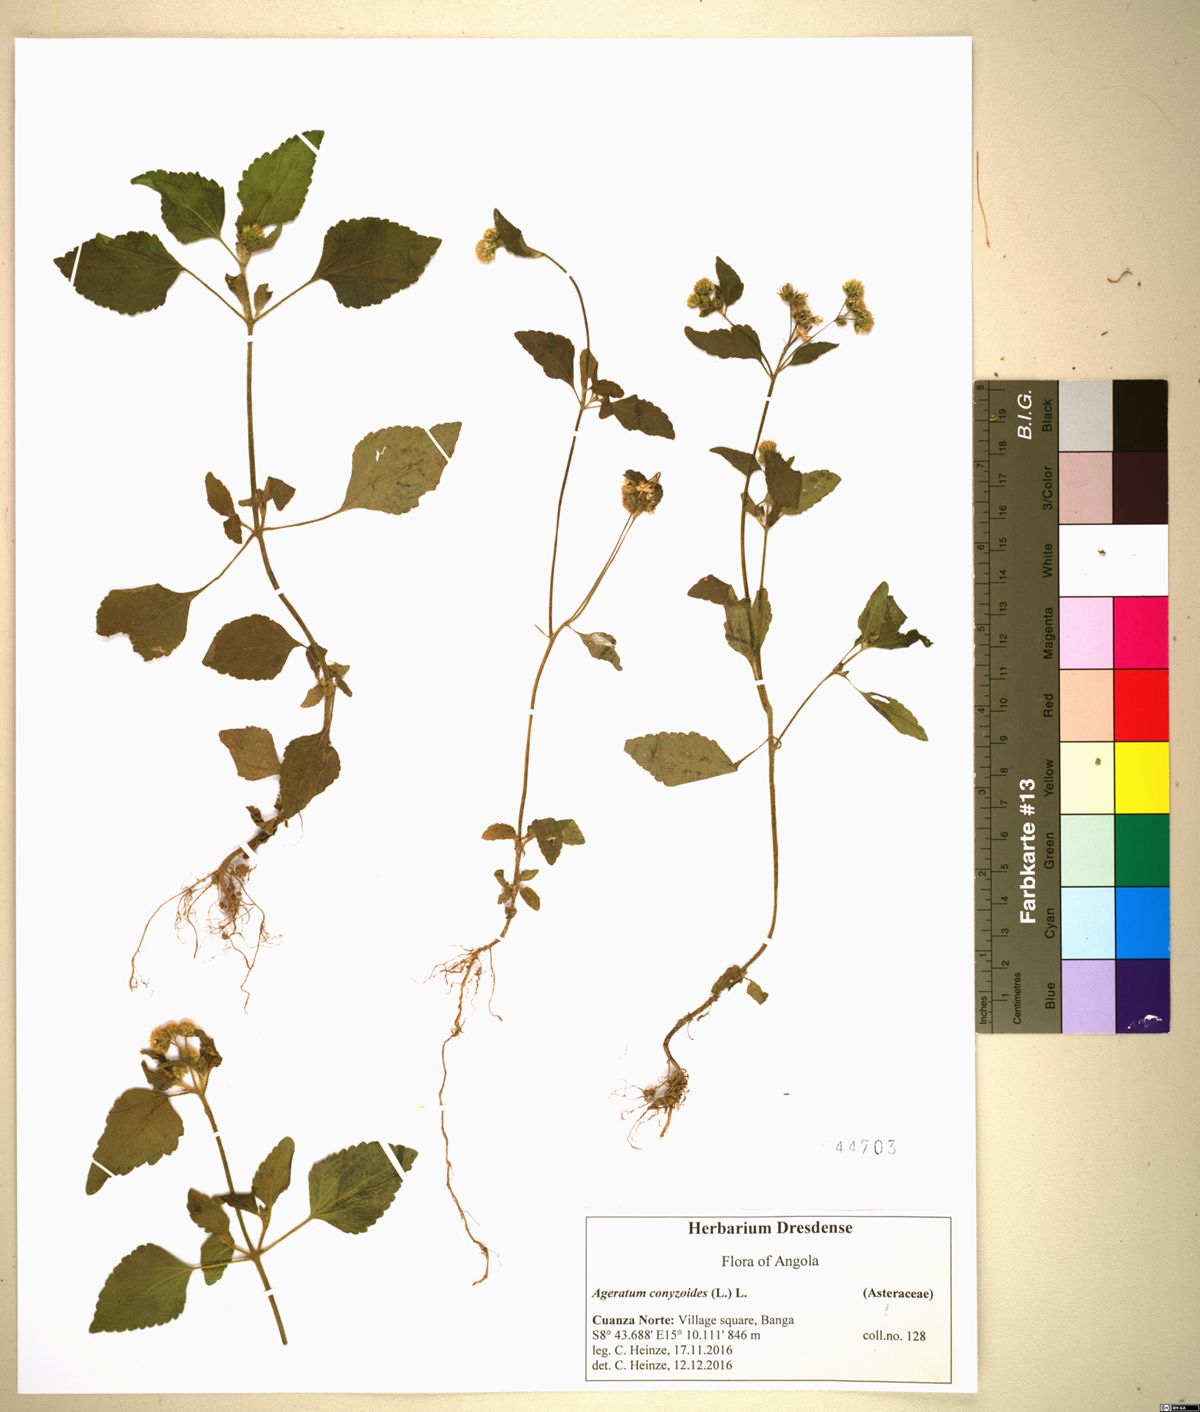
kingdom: Plantae
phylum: Tracheophyta
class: Magnoliopsida
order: Asterales
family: Asteraceae
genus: Ageratum
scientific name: Ageratum conyzoides
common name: Tropical whiteweed
